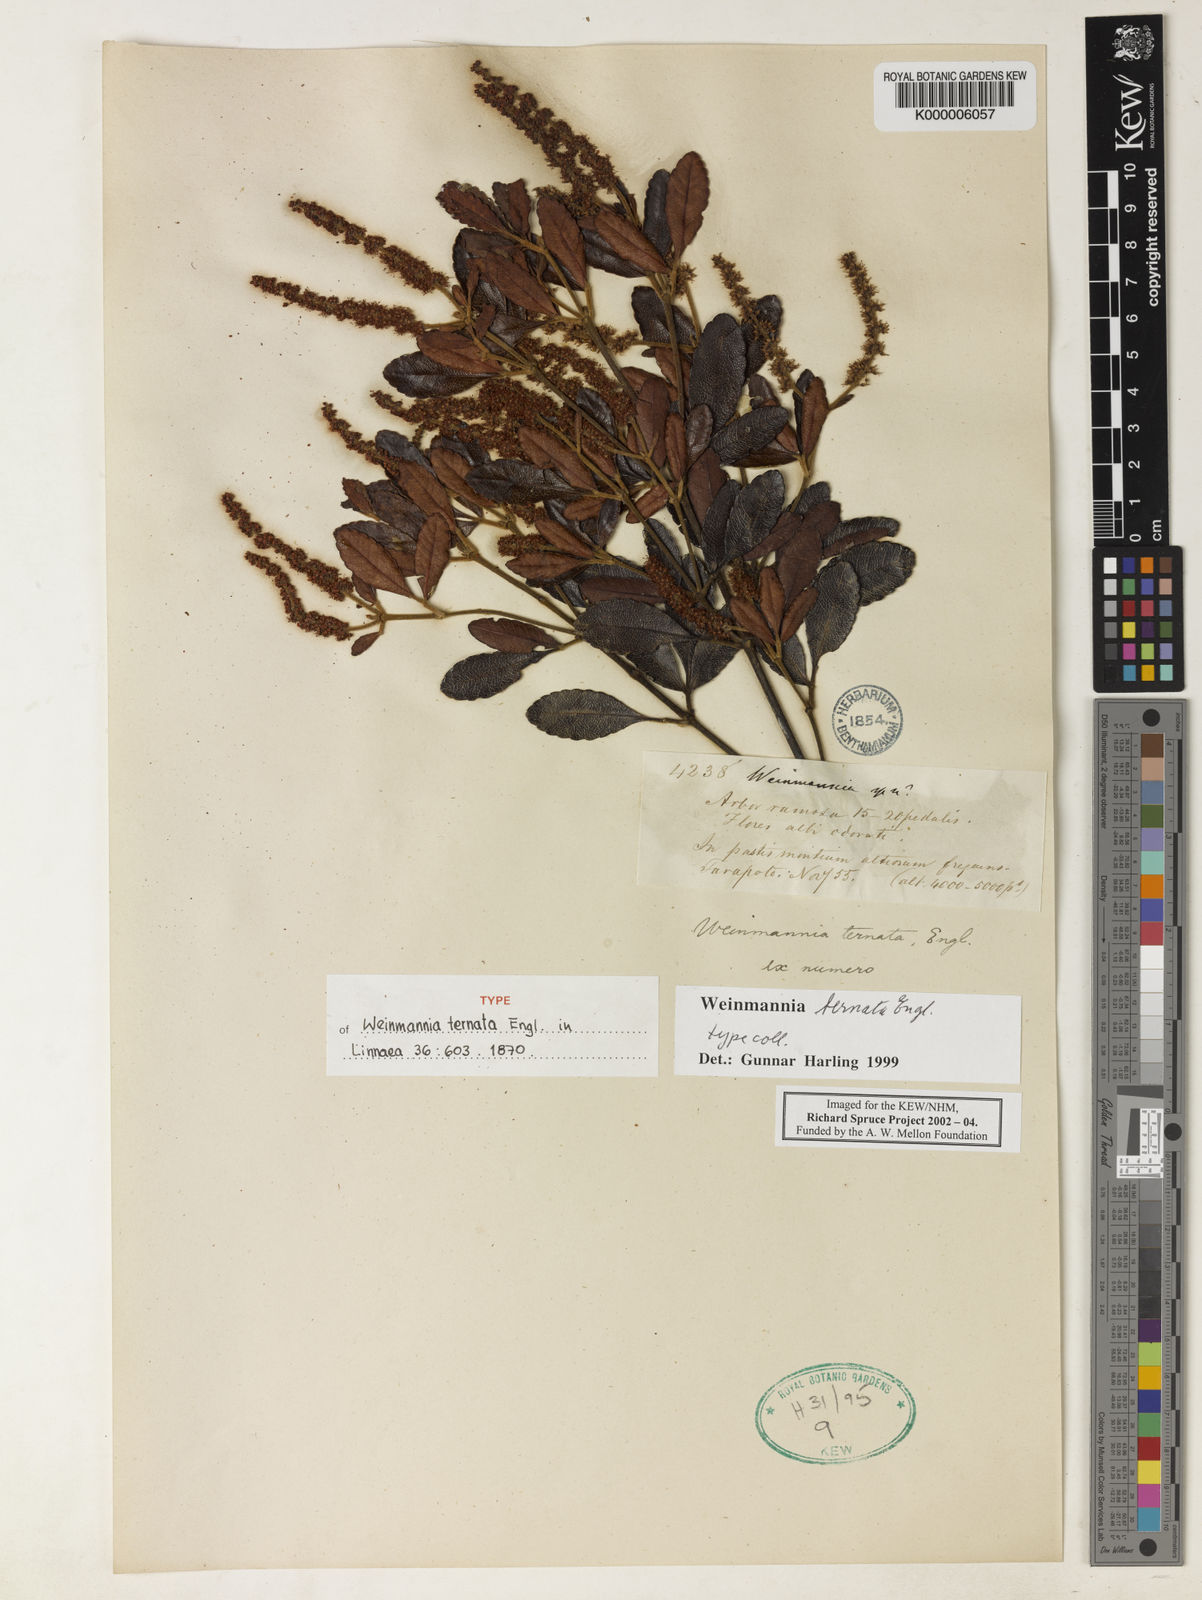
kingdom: Plantae
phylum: Tracheophyta
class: Magnoliopsida
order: Oxalidales
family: Cunoniaceae
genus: Weinmannia
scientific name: Weinmannia ternata
